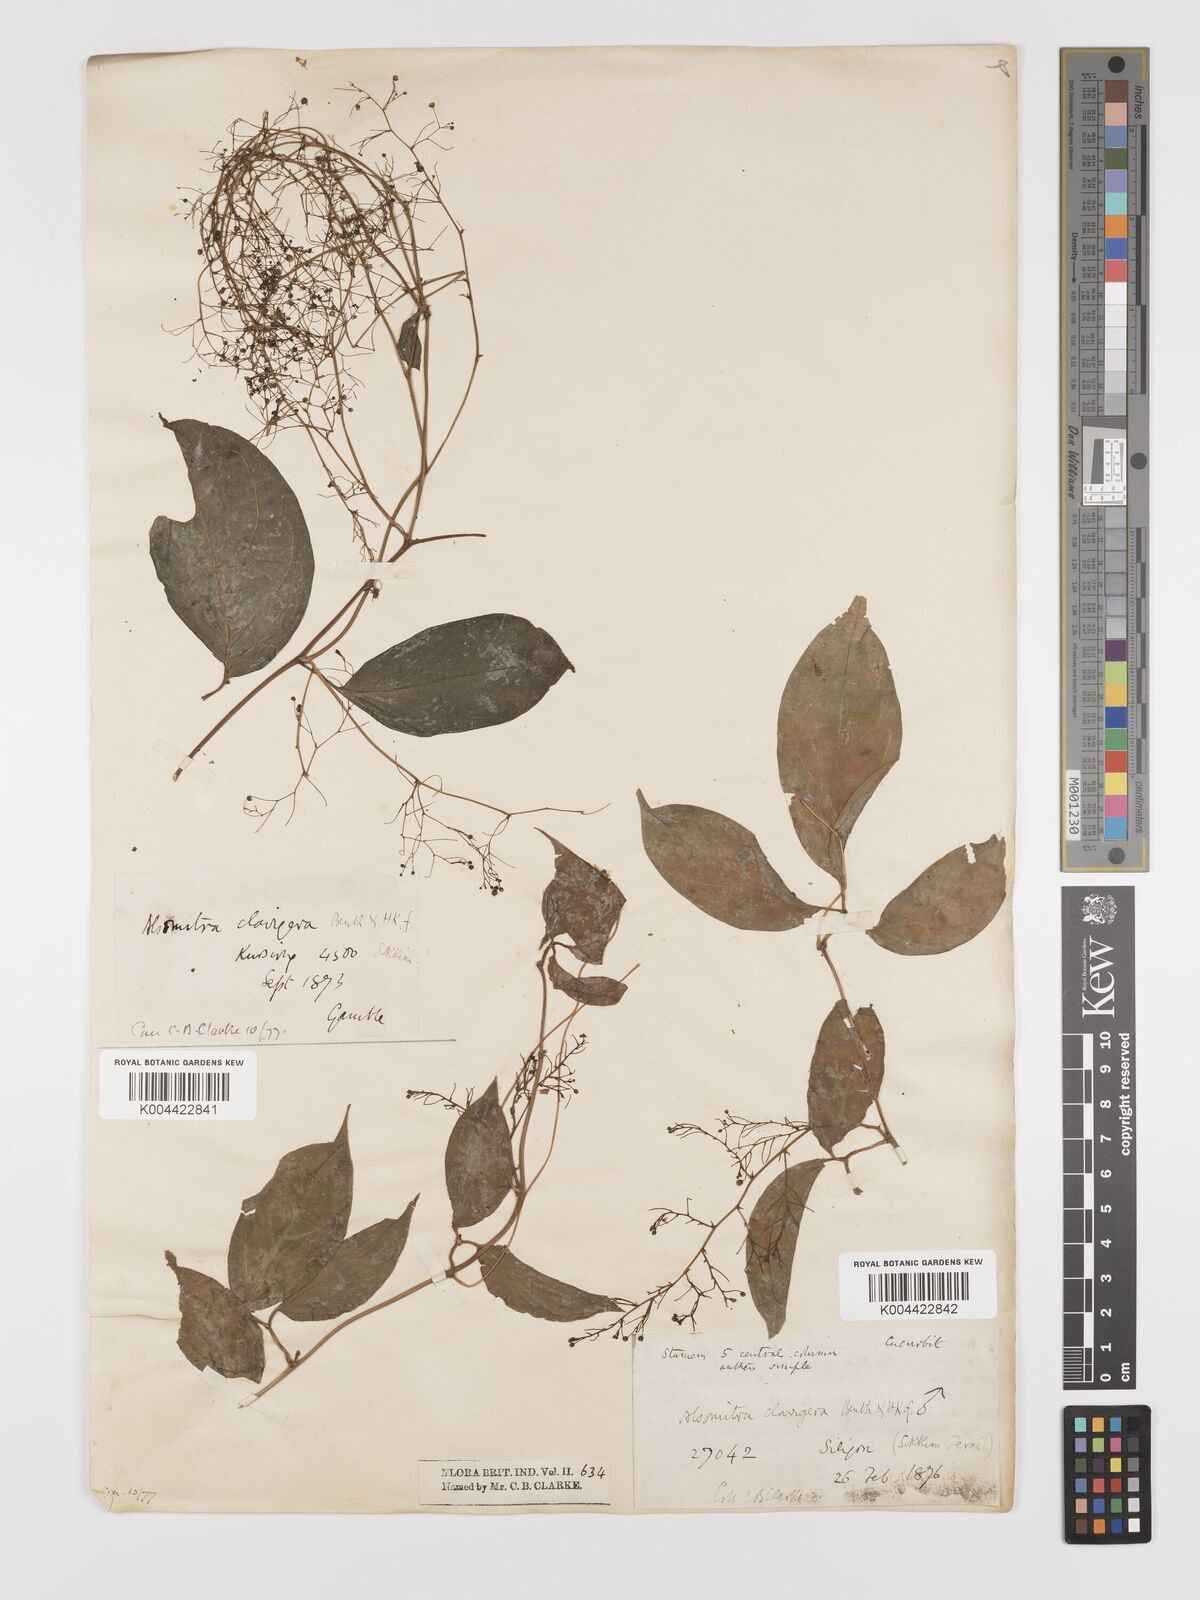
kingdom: Plantae
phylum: Tracheophyta
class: Magnoliopsida
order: Cucurbitales
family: Cucurbitaceae
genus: Neoalsomitra
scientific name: Neoalsomitra
